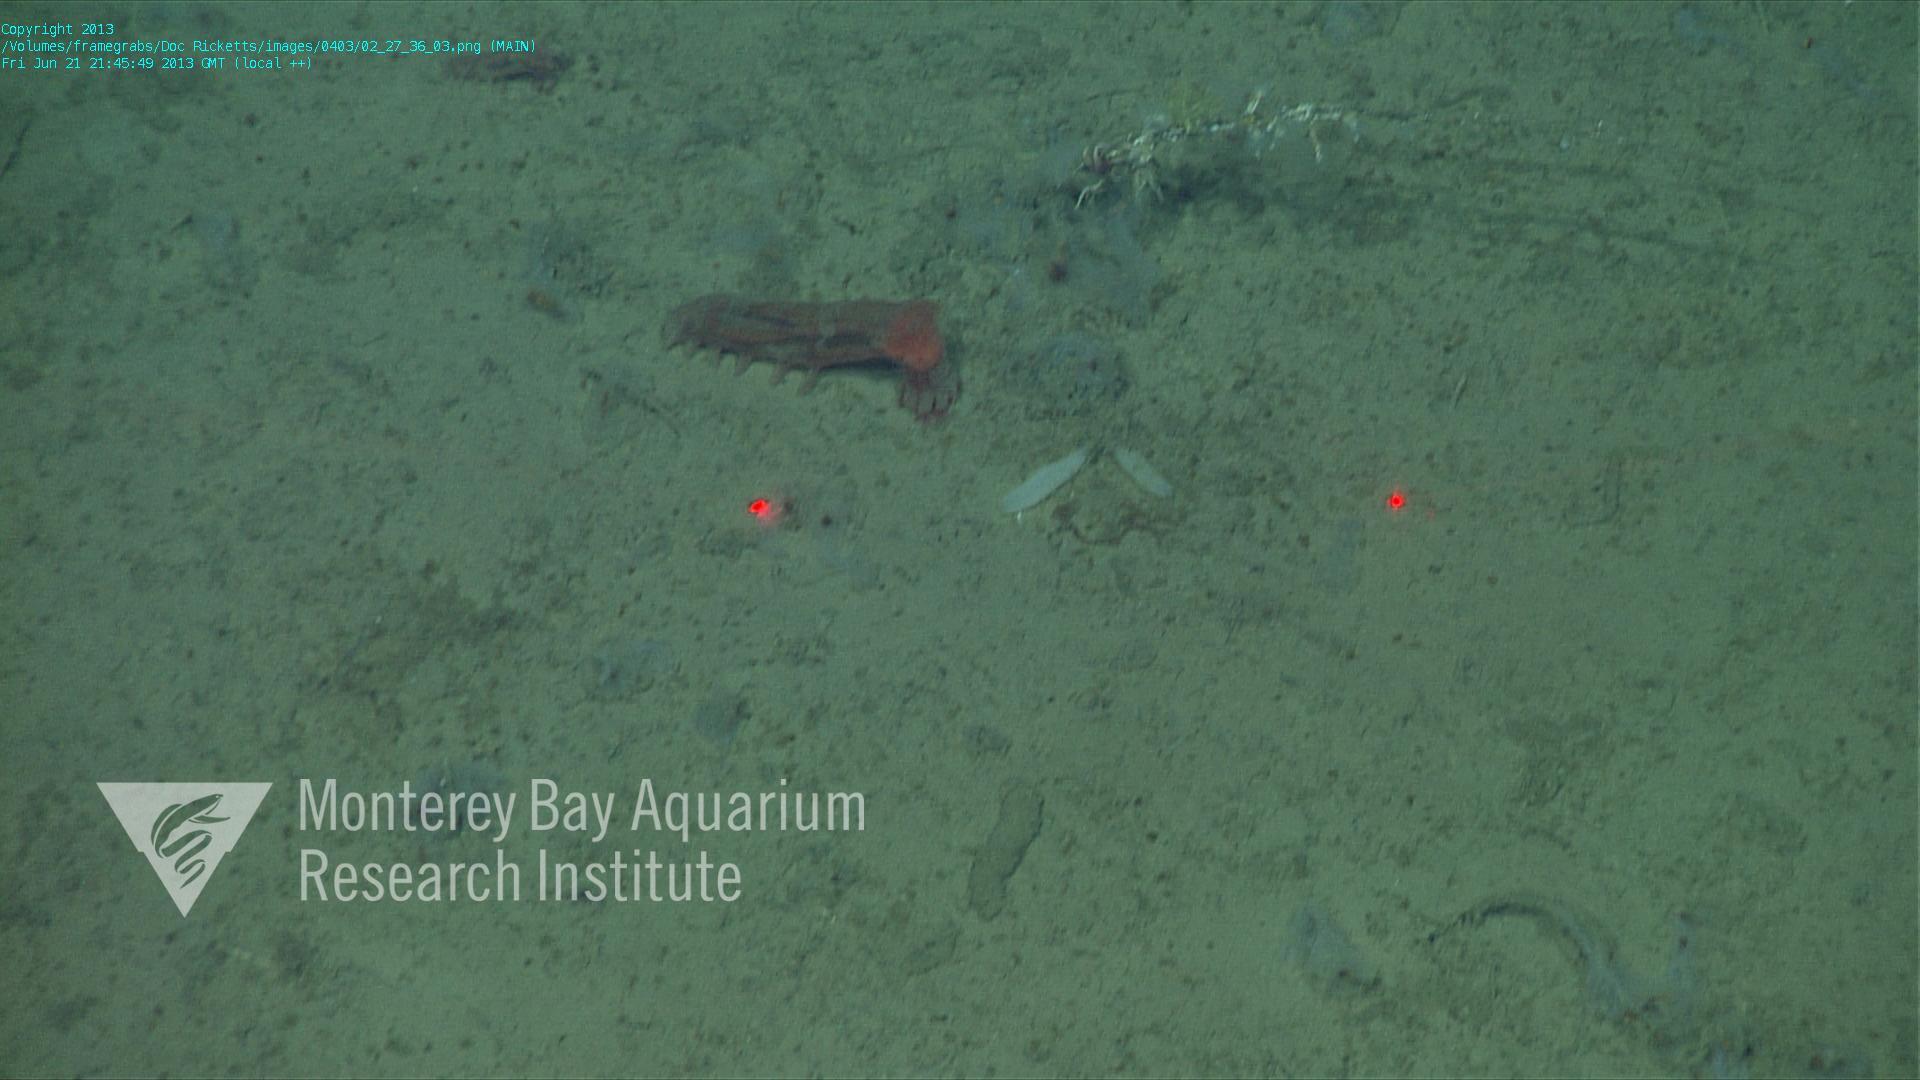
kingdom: Animalia
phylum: Porifera
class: Hexactinellida
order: Lyssacinosida
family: Rossellidae
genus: Bathydorus
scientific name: Bathydorus spinosus
